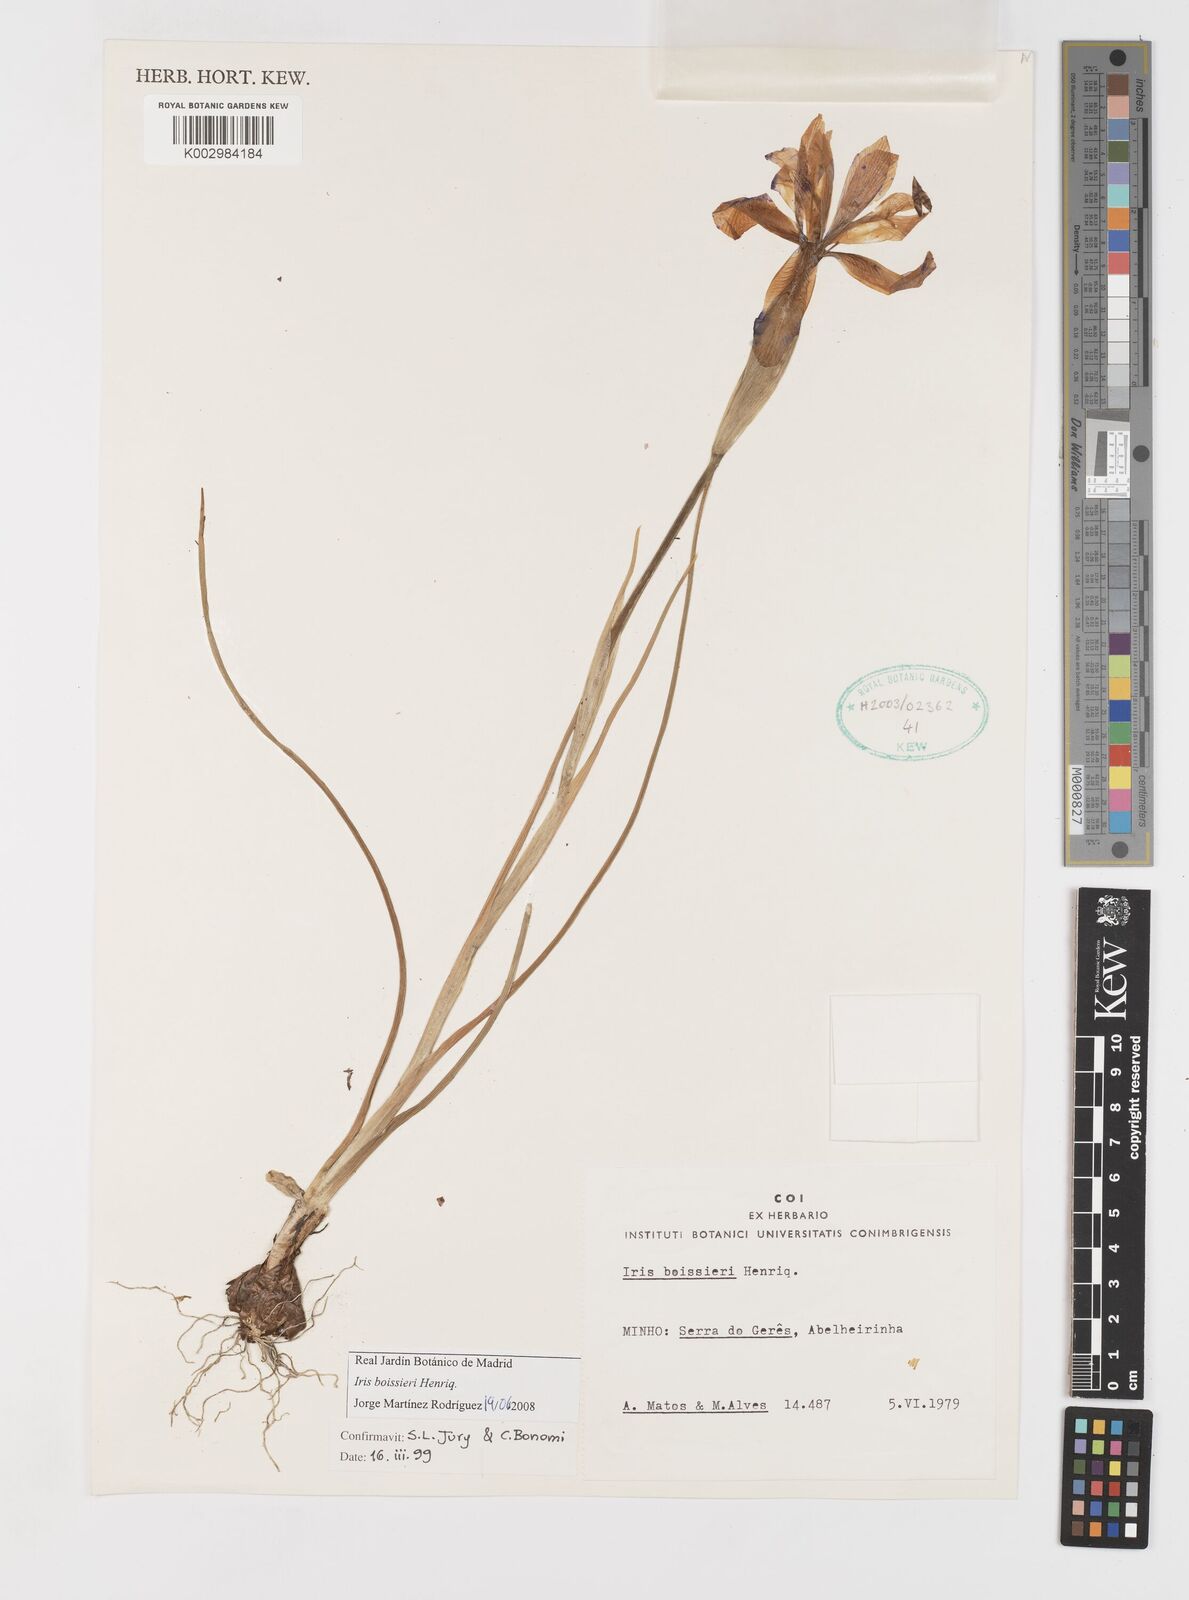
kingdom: Plantae
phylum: Tracheophyta
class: Liliopsida
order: Asparagales
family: Iridaceae
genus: Iris
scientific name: Iris boissieri
